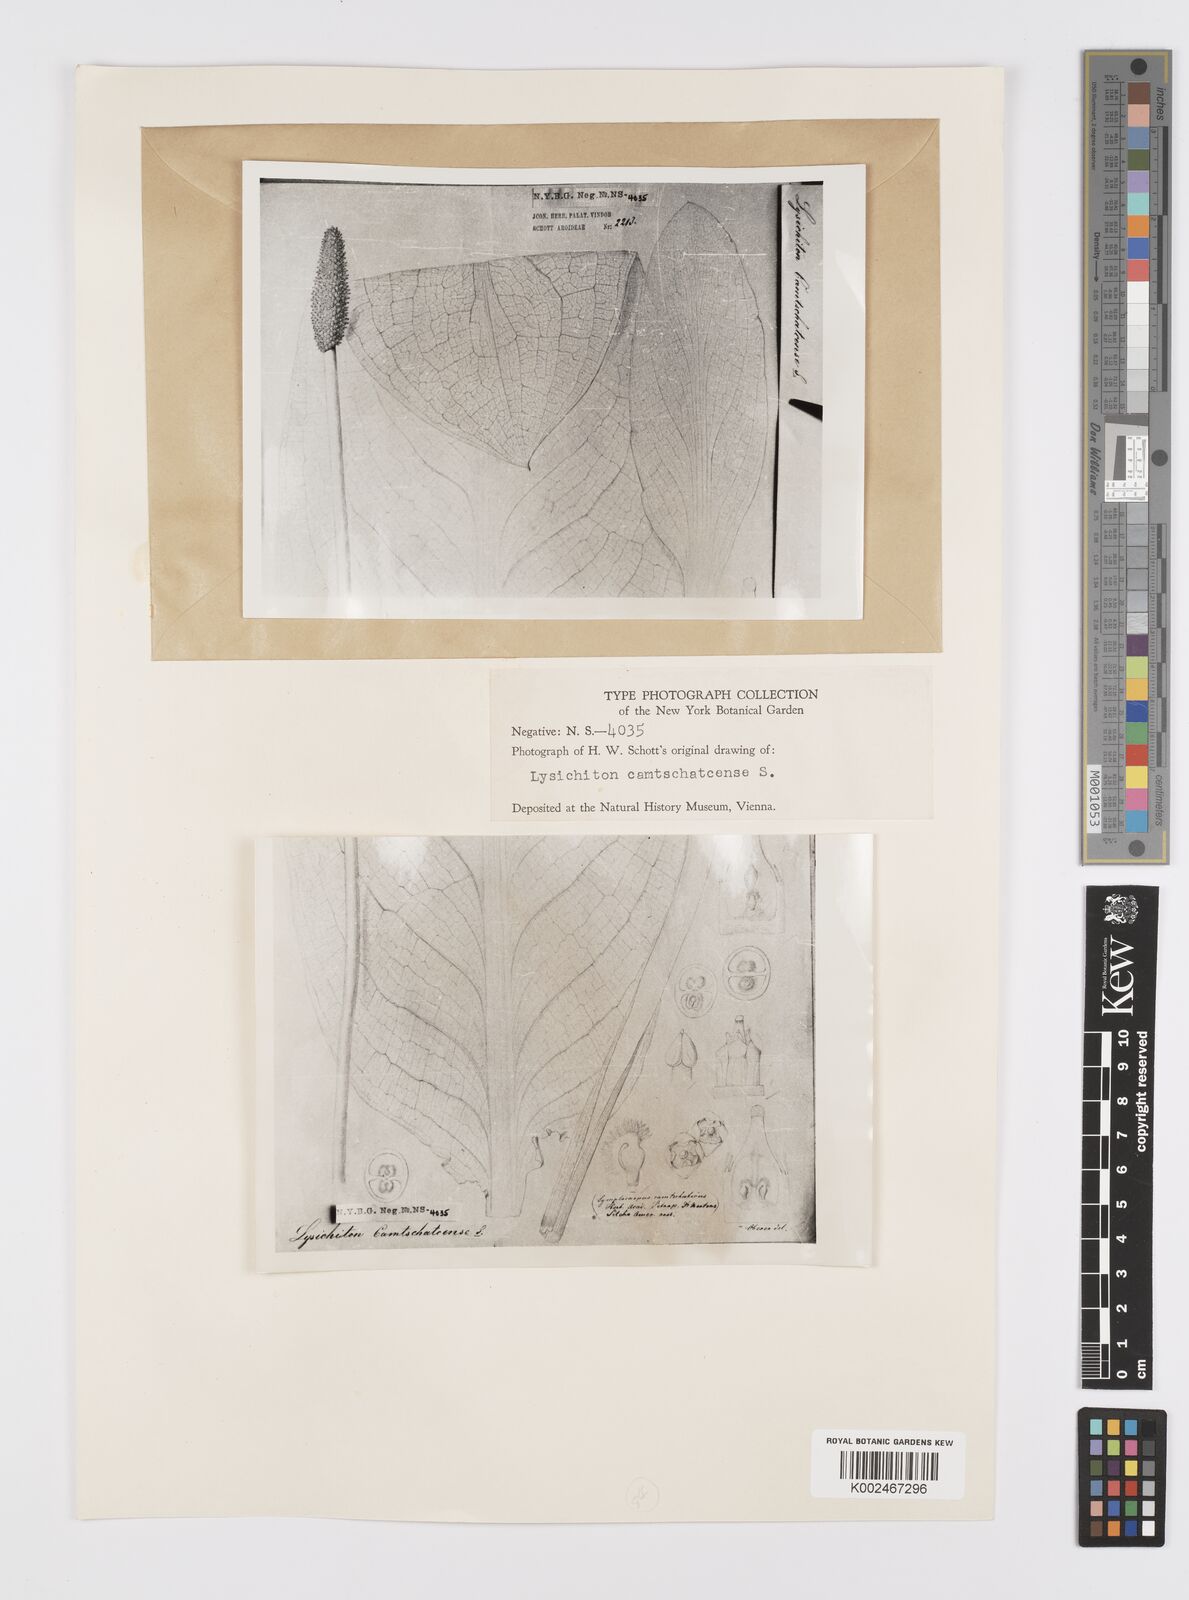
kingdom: Plantae
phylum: Tracheophyta
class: Liliopsida
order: Alismatales
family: Araceae
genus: Lysichiton
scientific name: Lysichiton americanus
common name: American skunk cabbage
